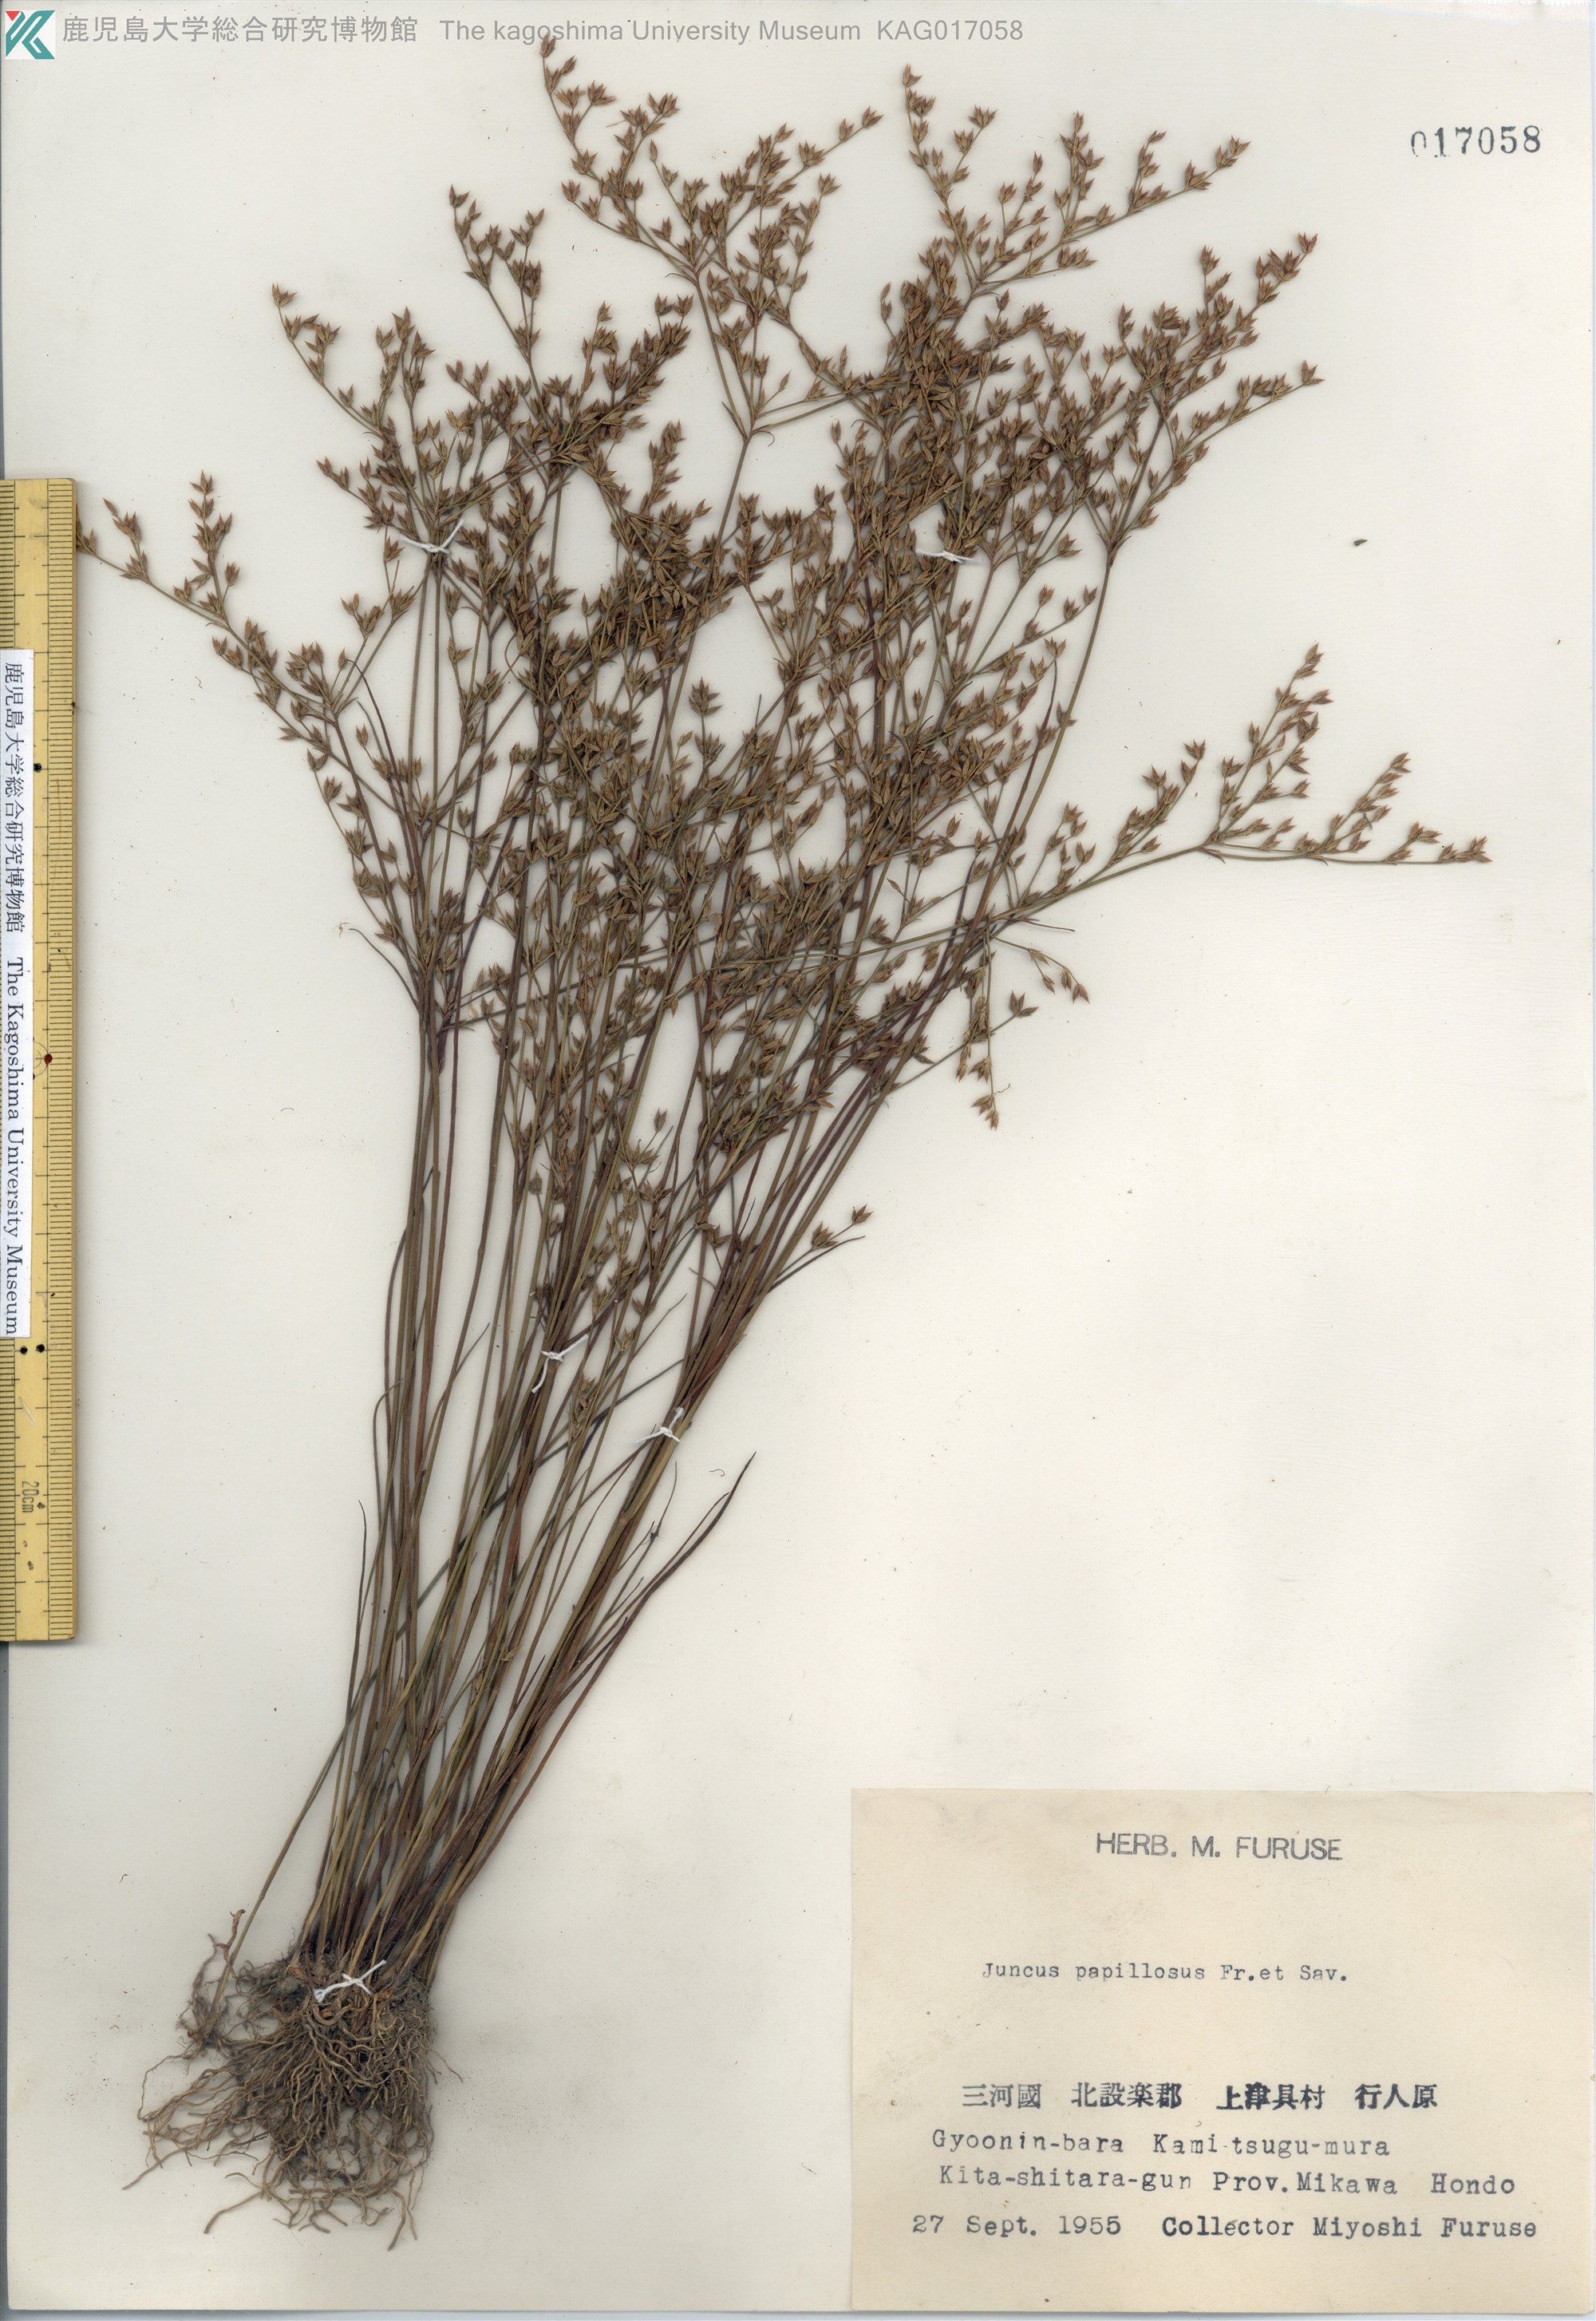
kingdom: Plantae
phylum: Tracheophyta
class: Liliopsida
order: Poales
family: Juncaceae
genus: Juncus
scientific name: Juncus papillosus
